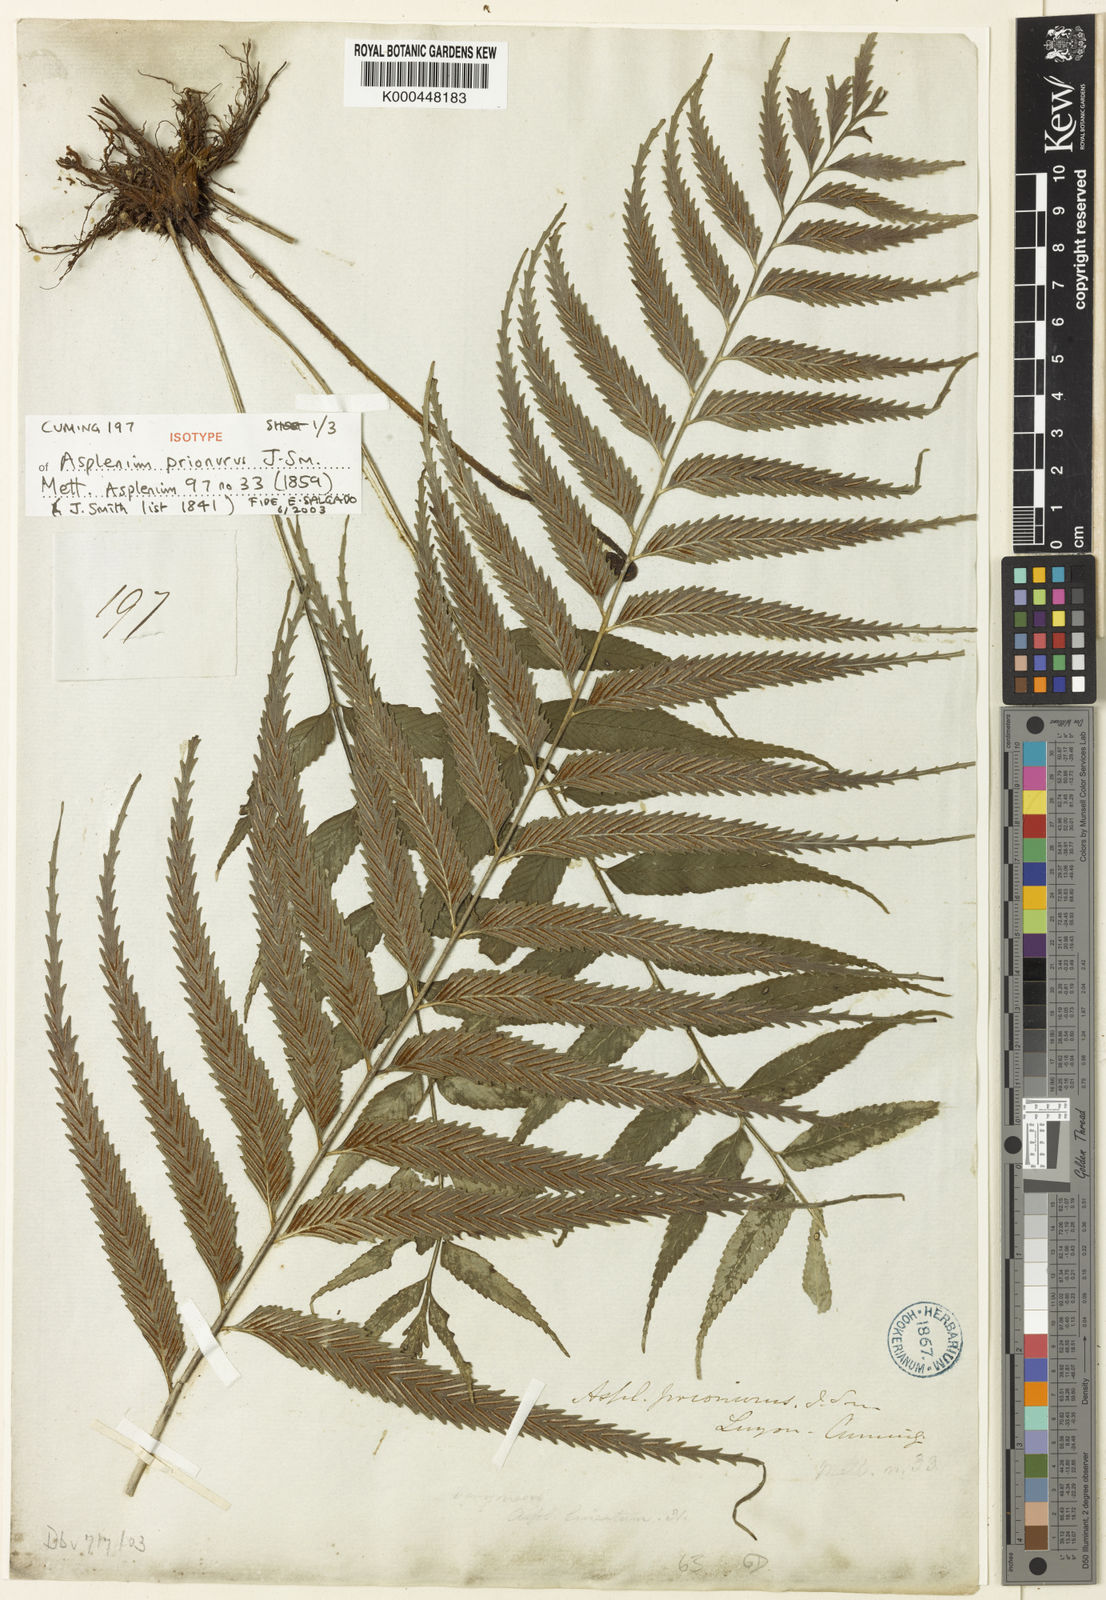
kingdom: Plantae
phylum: Tracheophyta
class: Polypodiopsida
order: Polypodiales
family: Aspleniaceae
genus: Asplenium
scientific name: Asplenium prionurus
